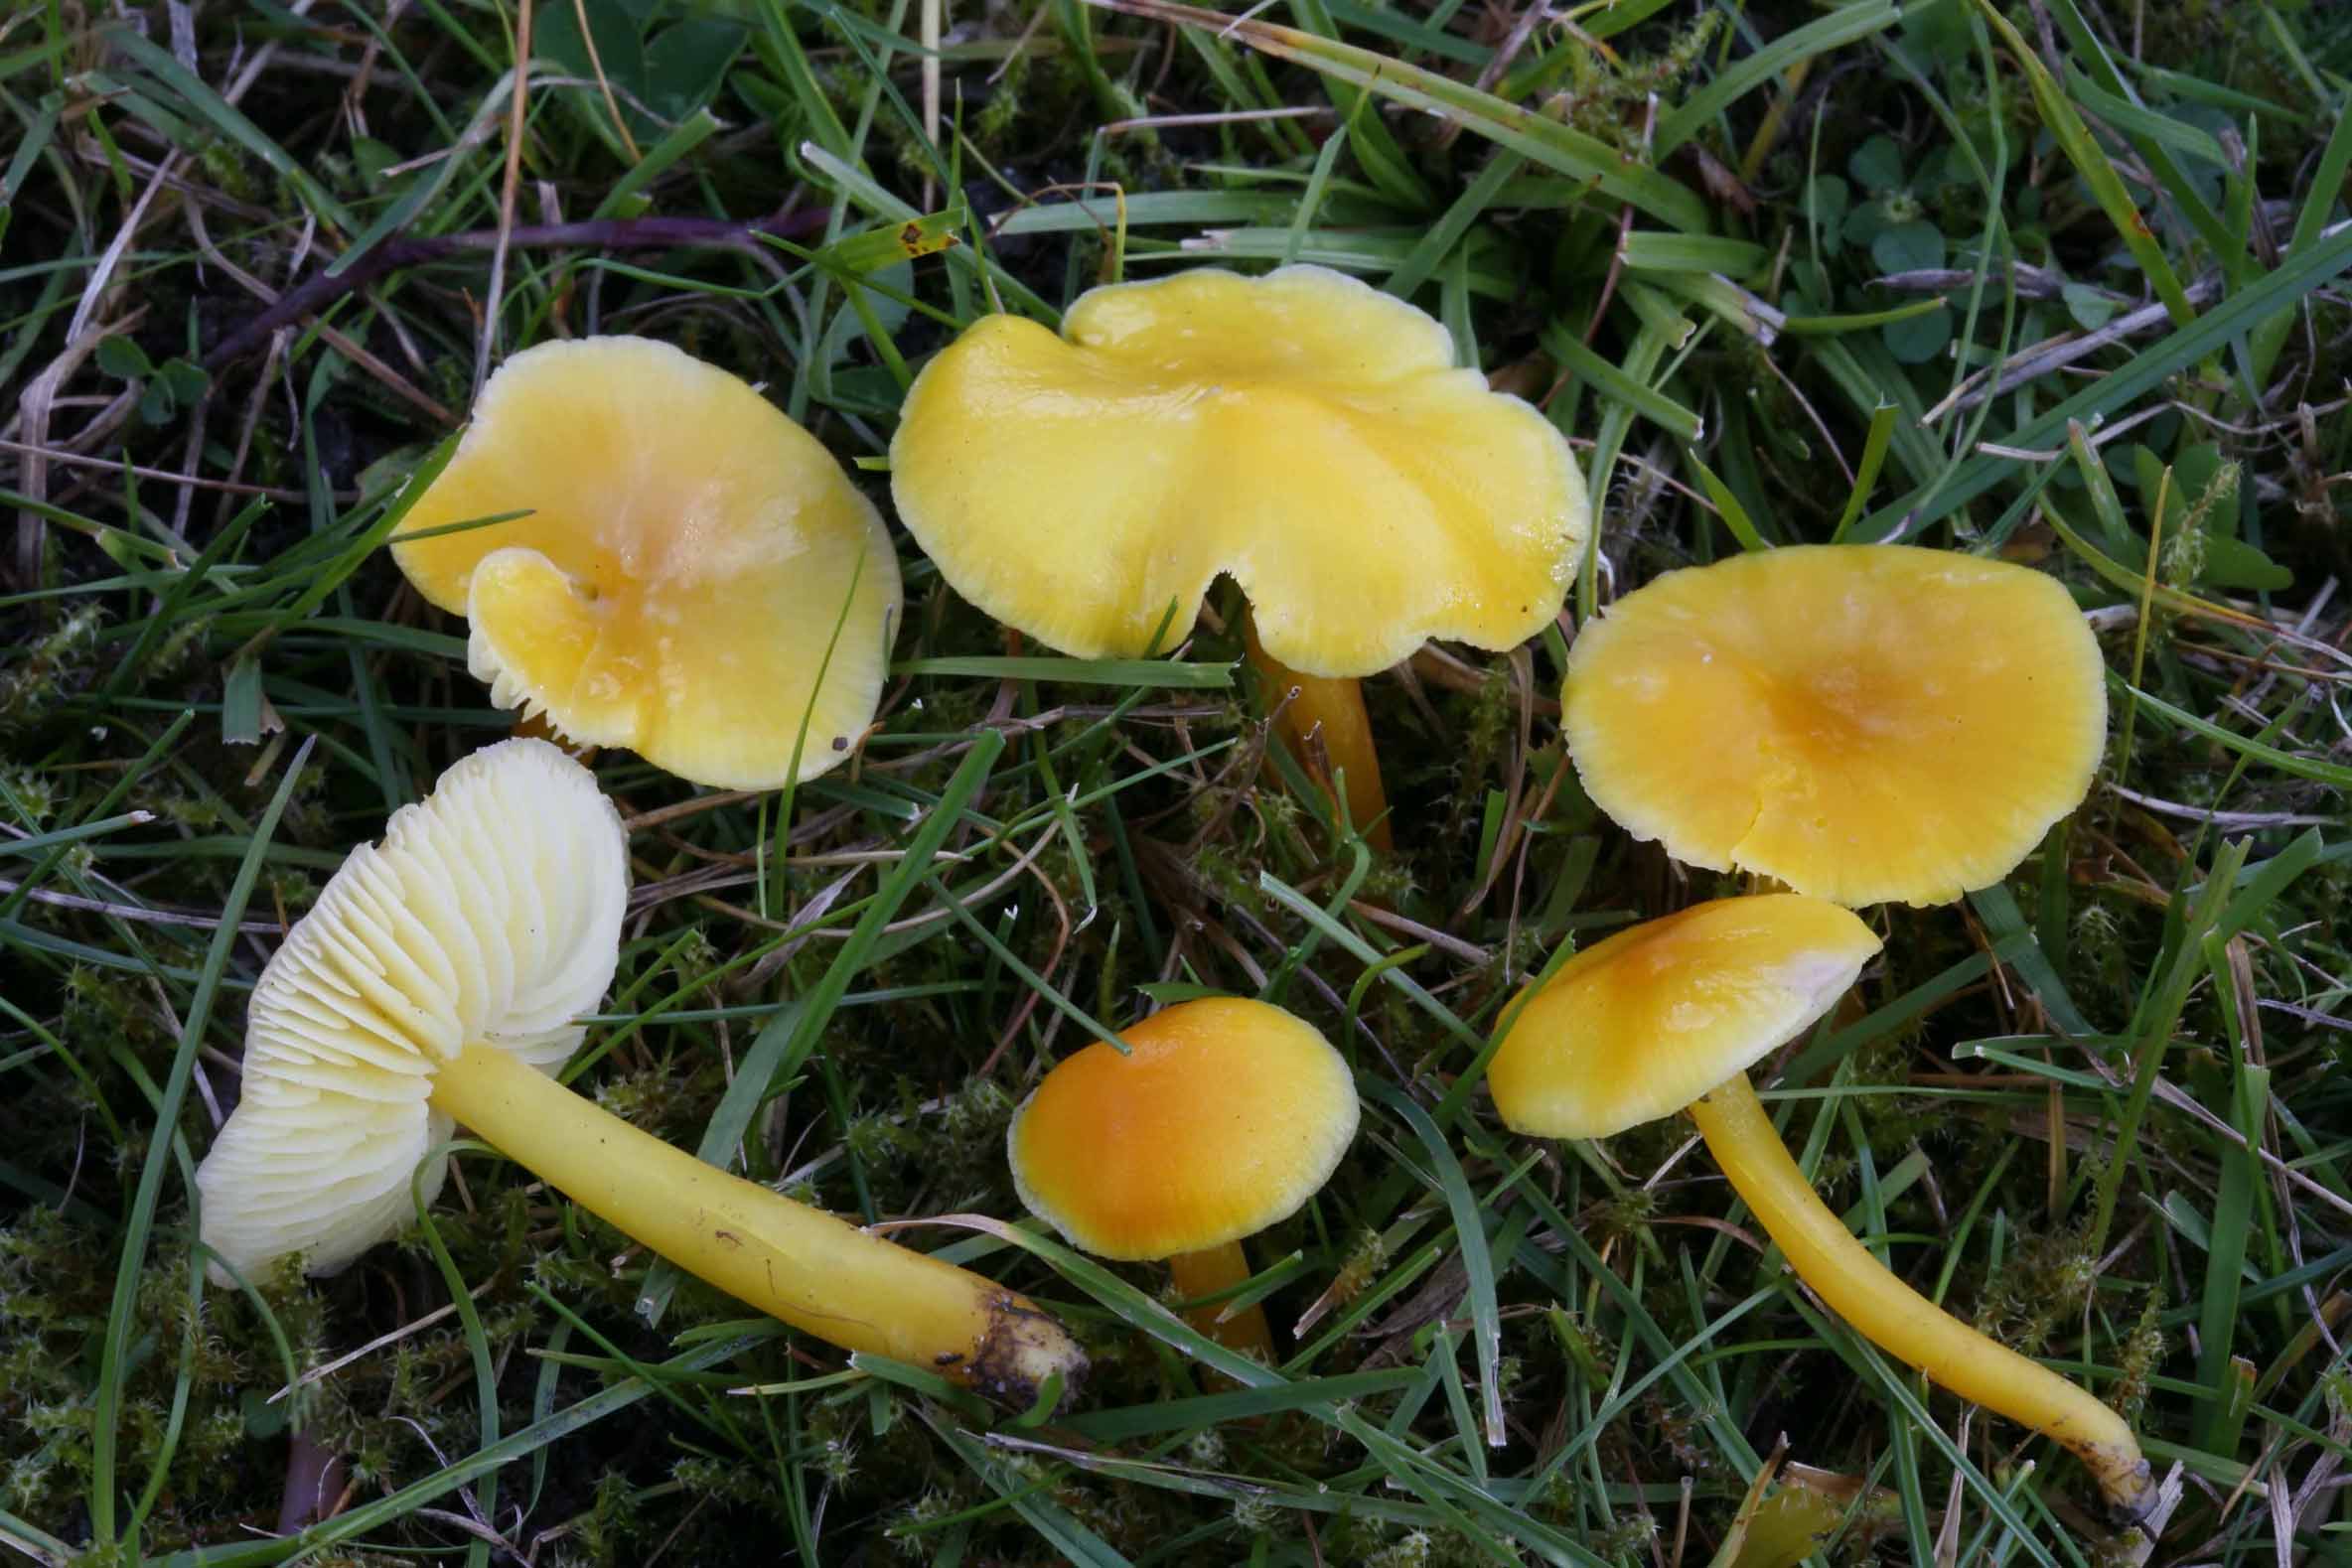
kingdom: Fungi
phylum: Basidiomycota
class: Agaricomycetes
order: Agaricales
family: Hygrophoraceae
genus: Hygrocybe
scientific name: Hygrocybe chlorophana
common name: gul vokshat
